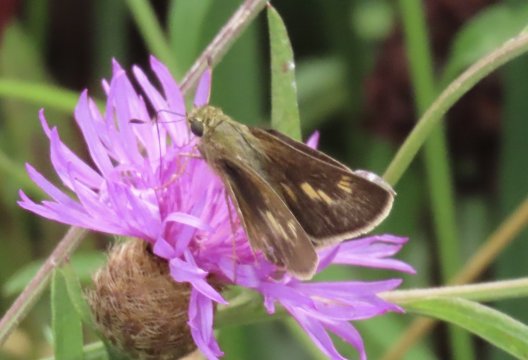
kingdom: Animalia
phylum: Arthropoda
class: Insecta
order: Lepidoptera
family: Hesperiidae
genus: Vernia
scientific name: Vernia verna
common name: Little Glassywing
